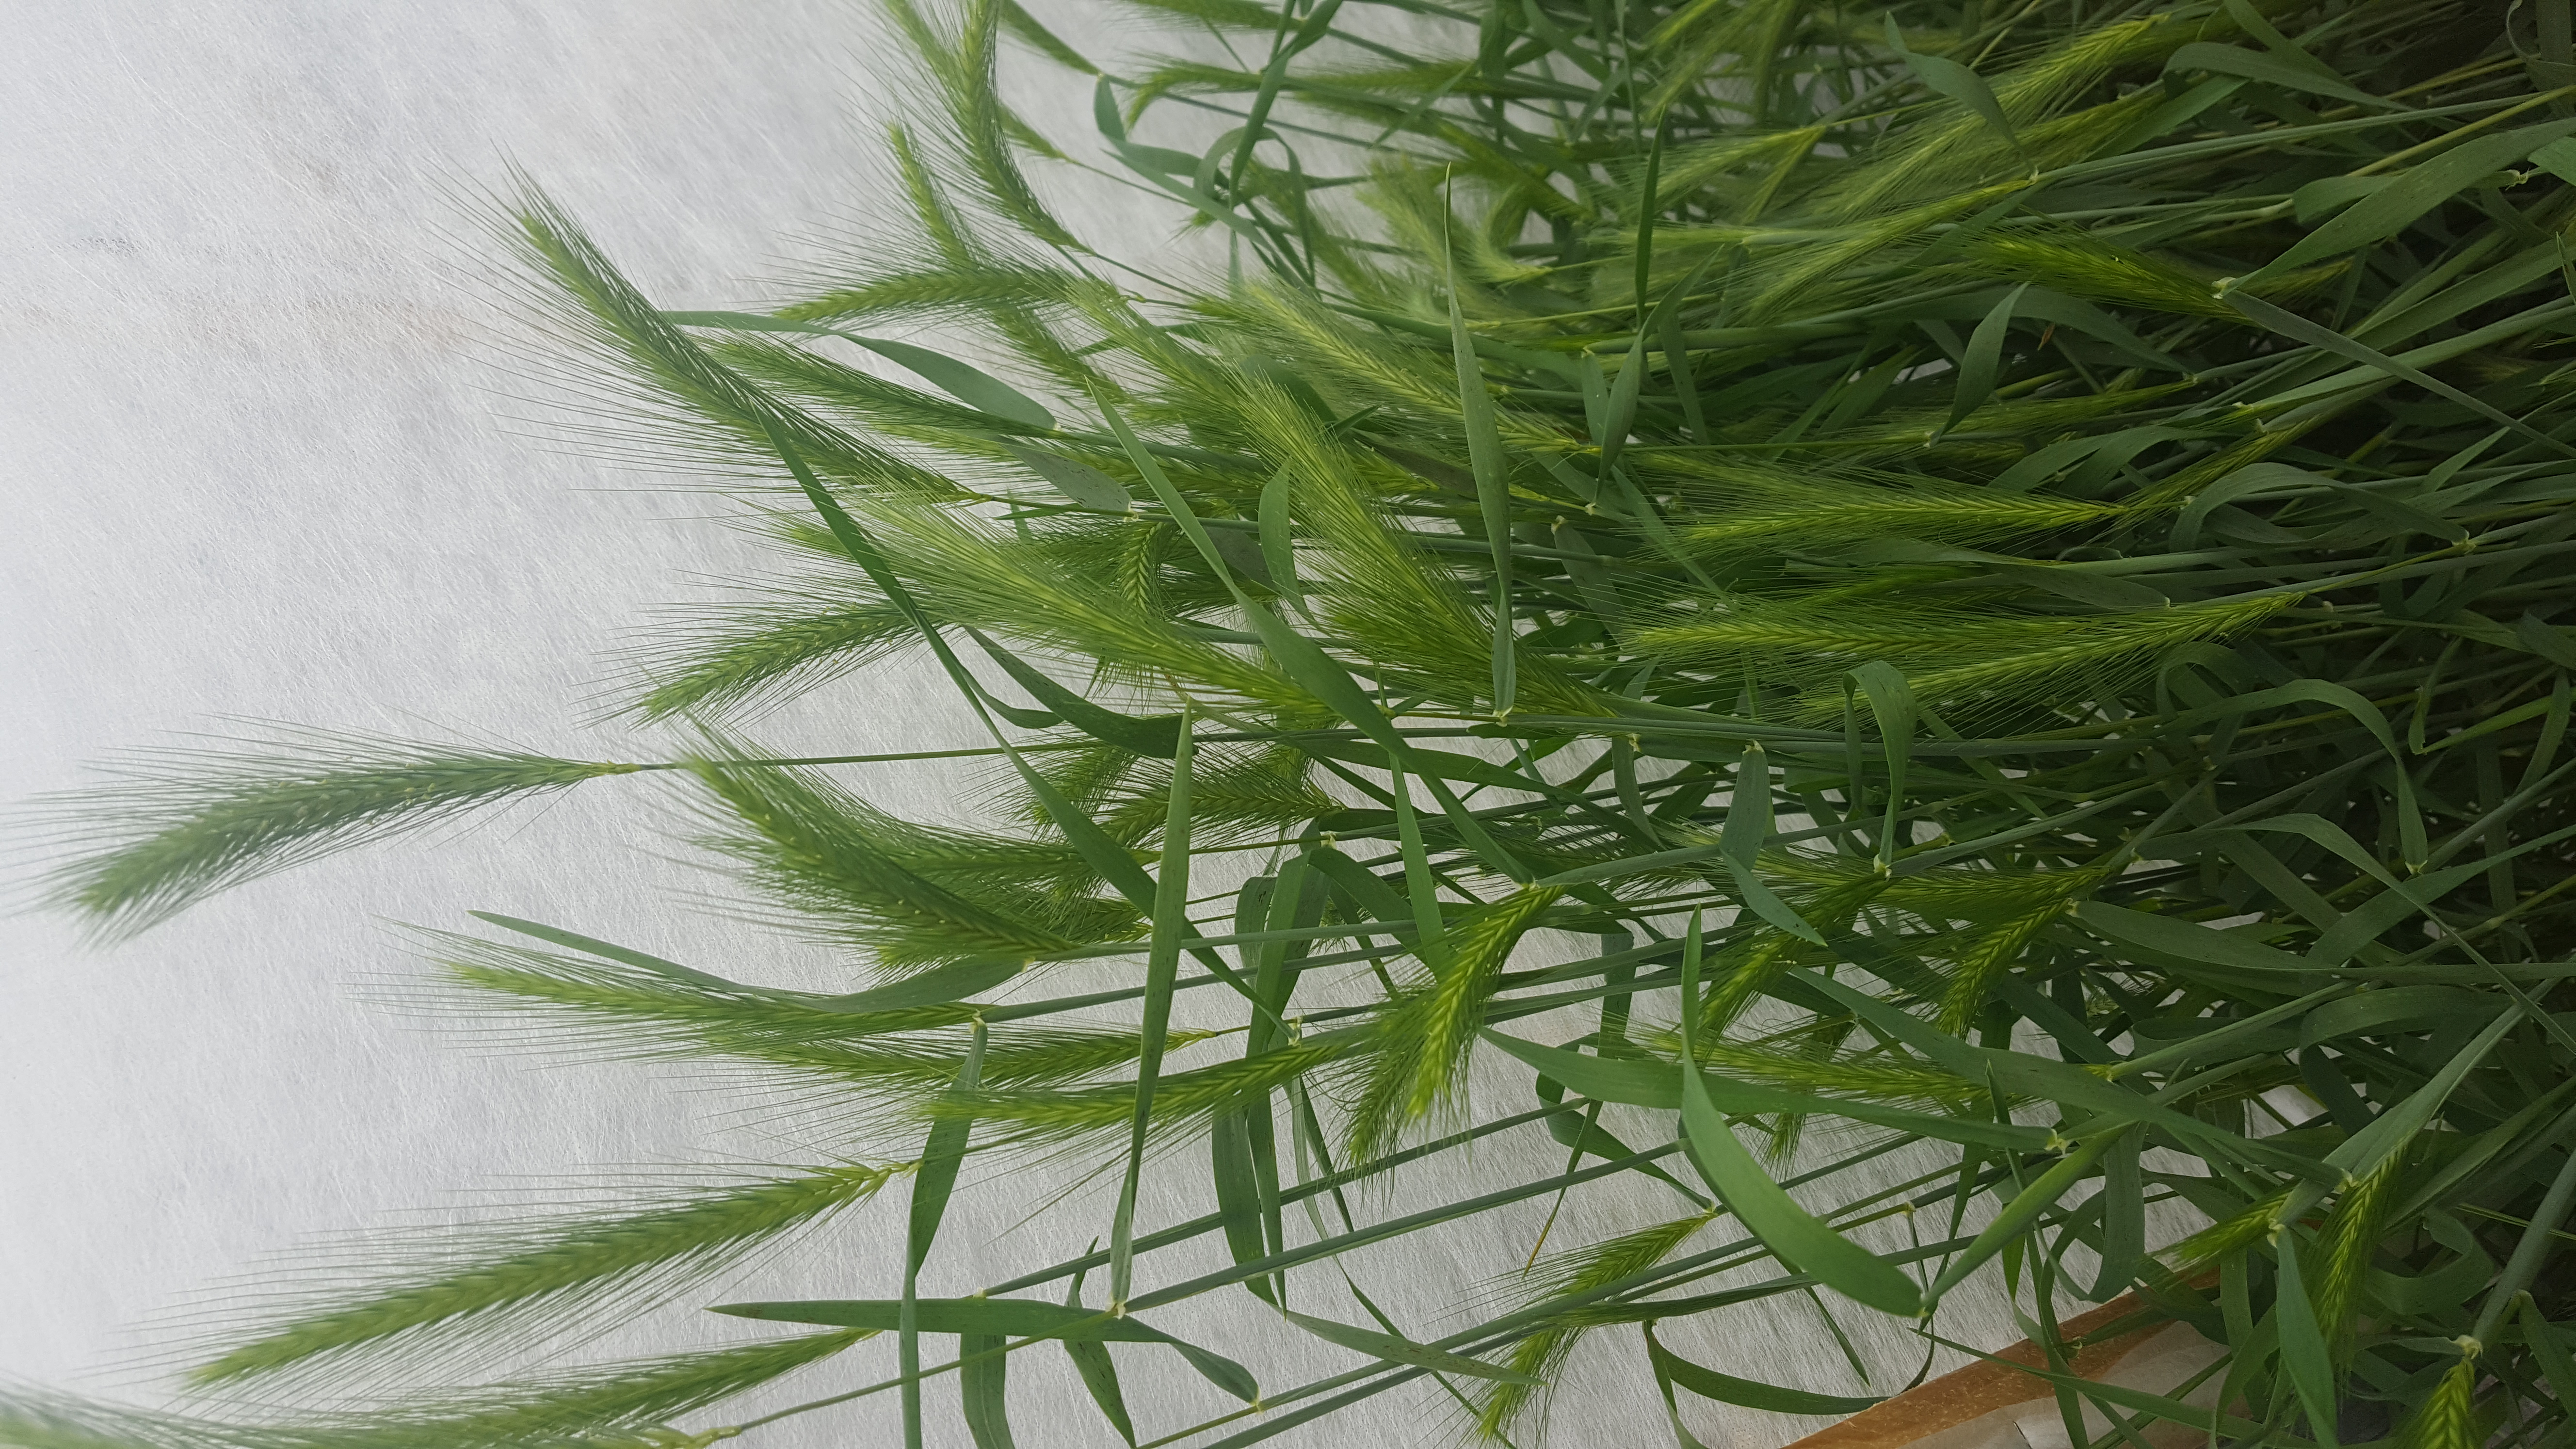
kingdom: Plantae
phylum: Tracheophyta
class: Liliopsida
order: Poales
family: Poaceae
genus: Hordeum
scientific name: Hordeum murinum
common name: Wall barley
